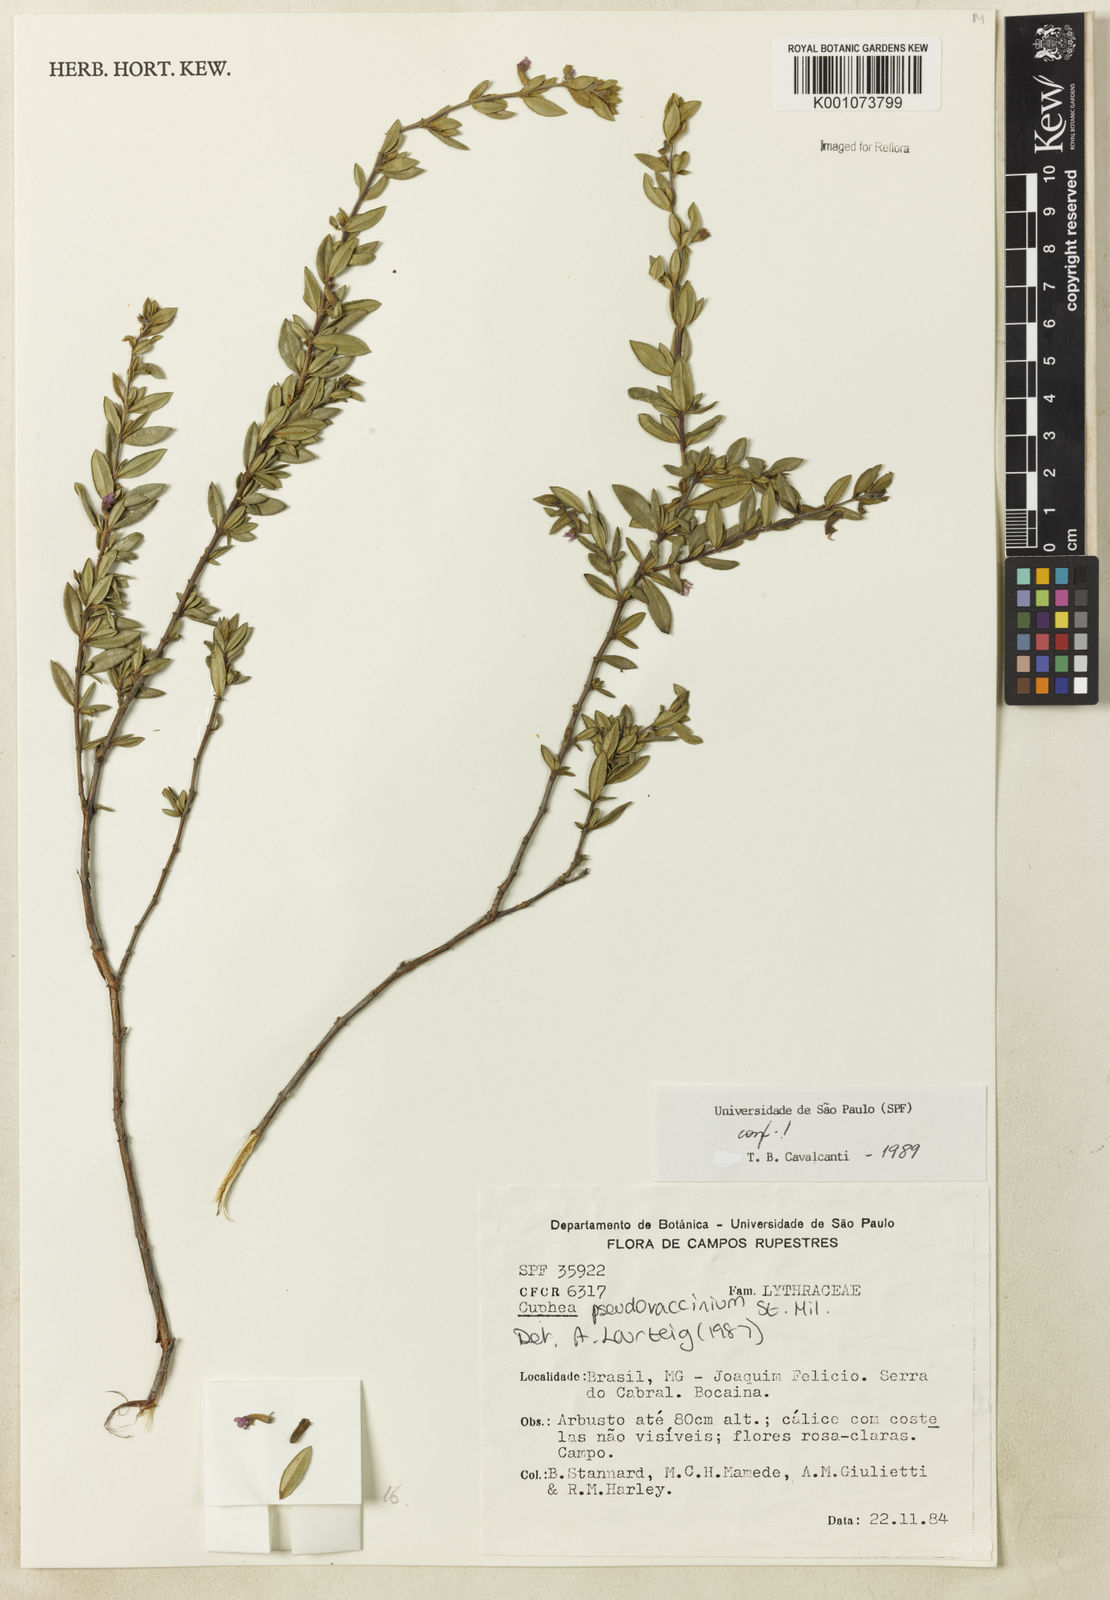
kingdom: Plantae
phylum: Tracheophyta
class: Magnoliopsida
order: Myrtales
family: Lythraceae
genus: Cuphea
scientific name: Cuphea pseudovaccinium
